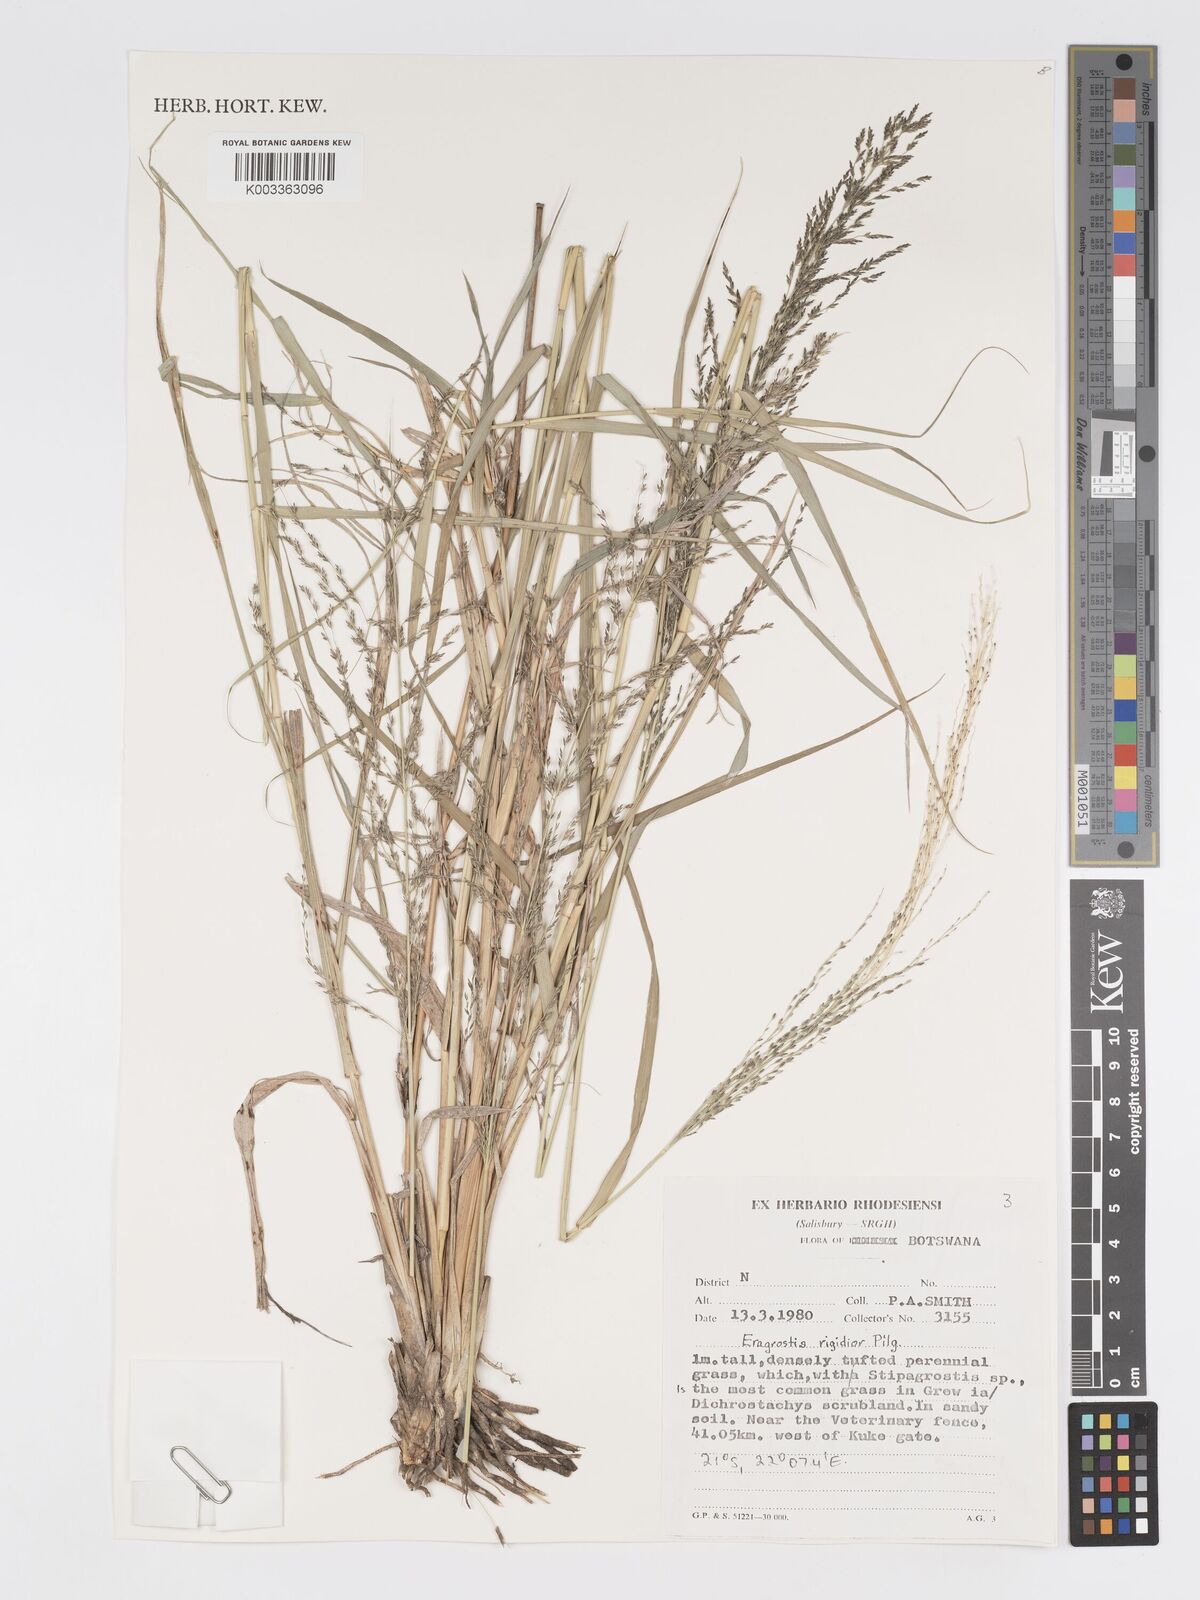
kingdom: Plantae
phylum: Tracheophyta
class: Liliopsida
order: Poales
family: Poaceae
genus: Eragrostis
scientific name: Eragrostis cylindriflora
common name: Cylinderflower lovegrass
